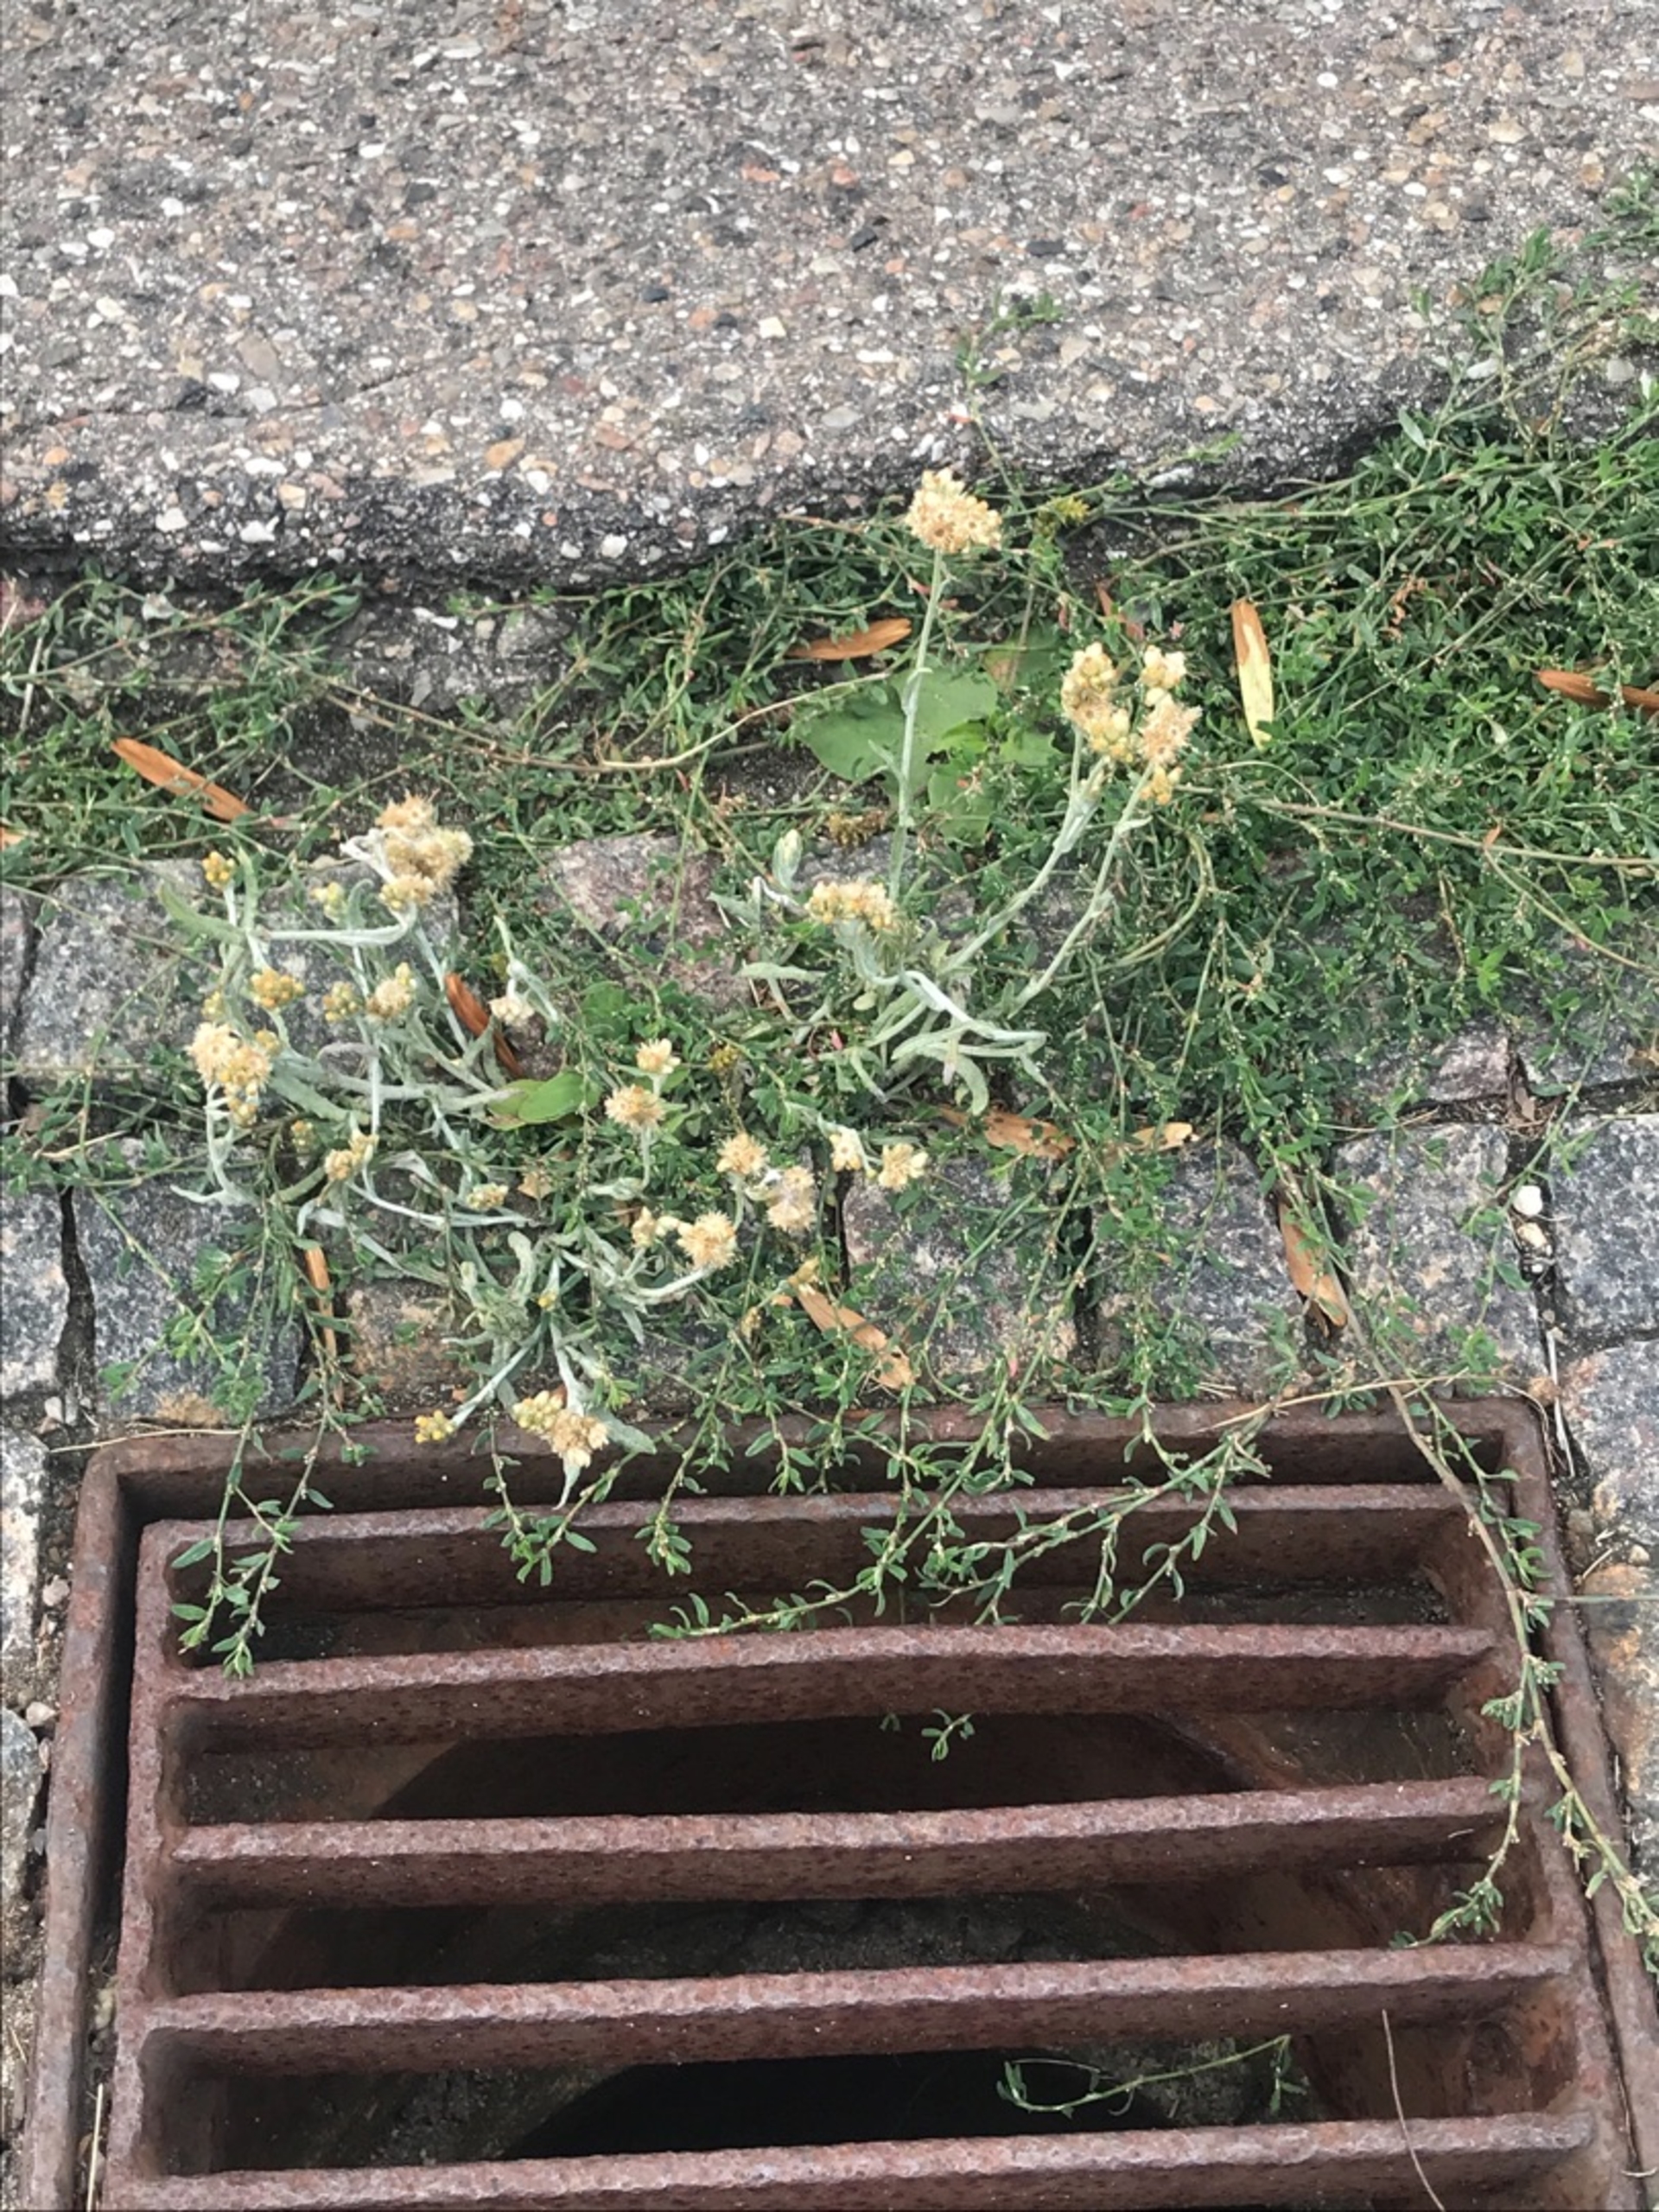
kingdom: Plantae
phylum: Tracheophyta
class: Magnoliopsida
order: Asterales
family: Asteraceae
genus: Helichrysum
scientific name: Helichrysum luteoalbum
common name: Gulhvid evighedsblomst
